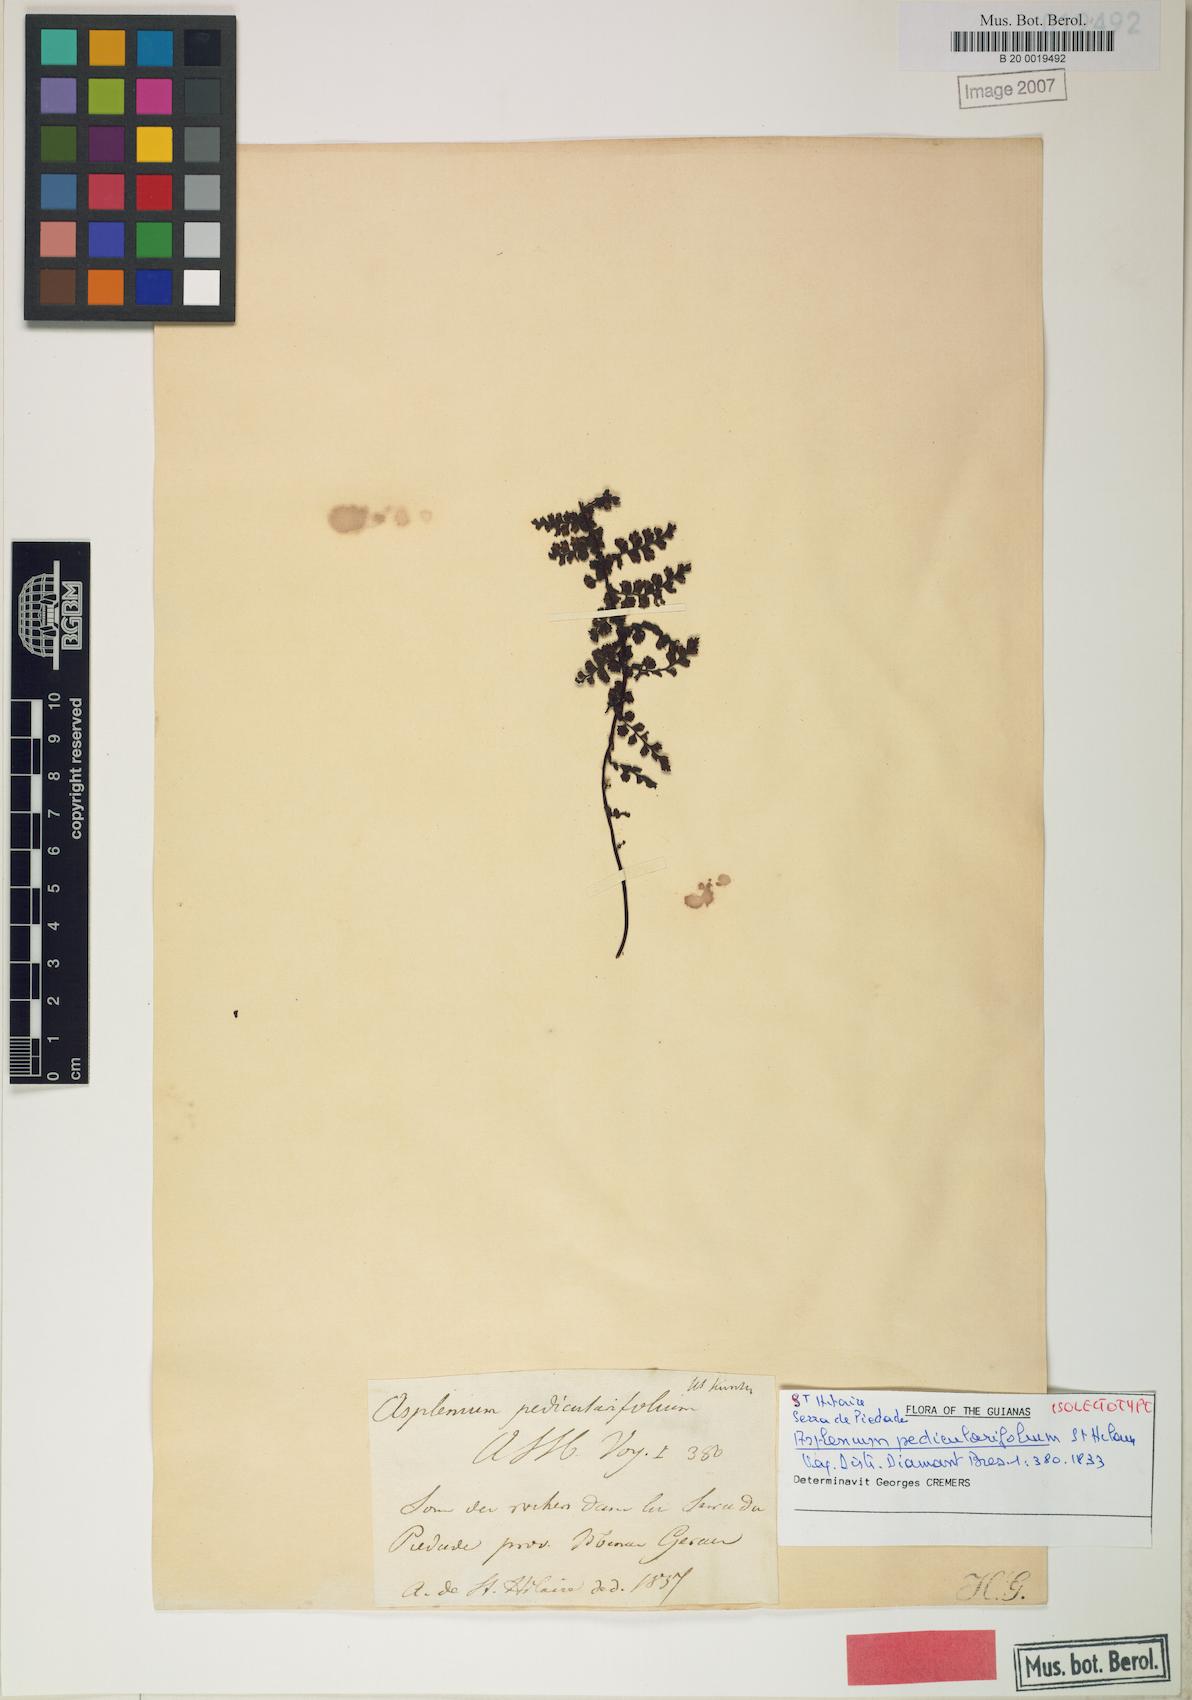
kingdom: Plantae
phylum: Tracheophyta
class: Polypodiopsida
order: Polypodiales
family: Aspleniaceae
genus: Asplenium
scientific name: Asplenium pedicularifolium
